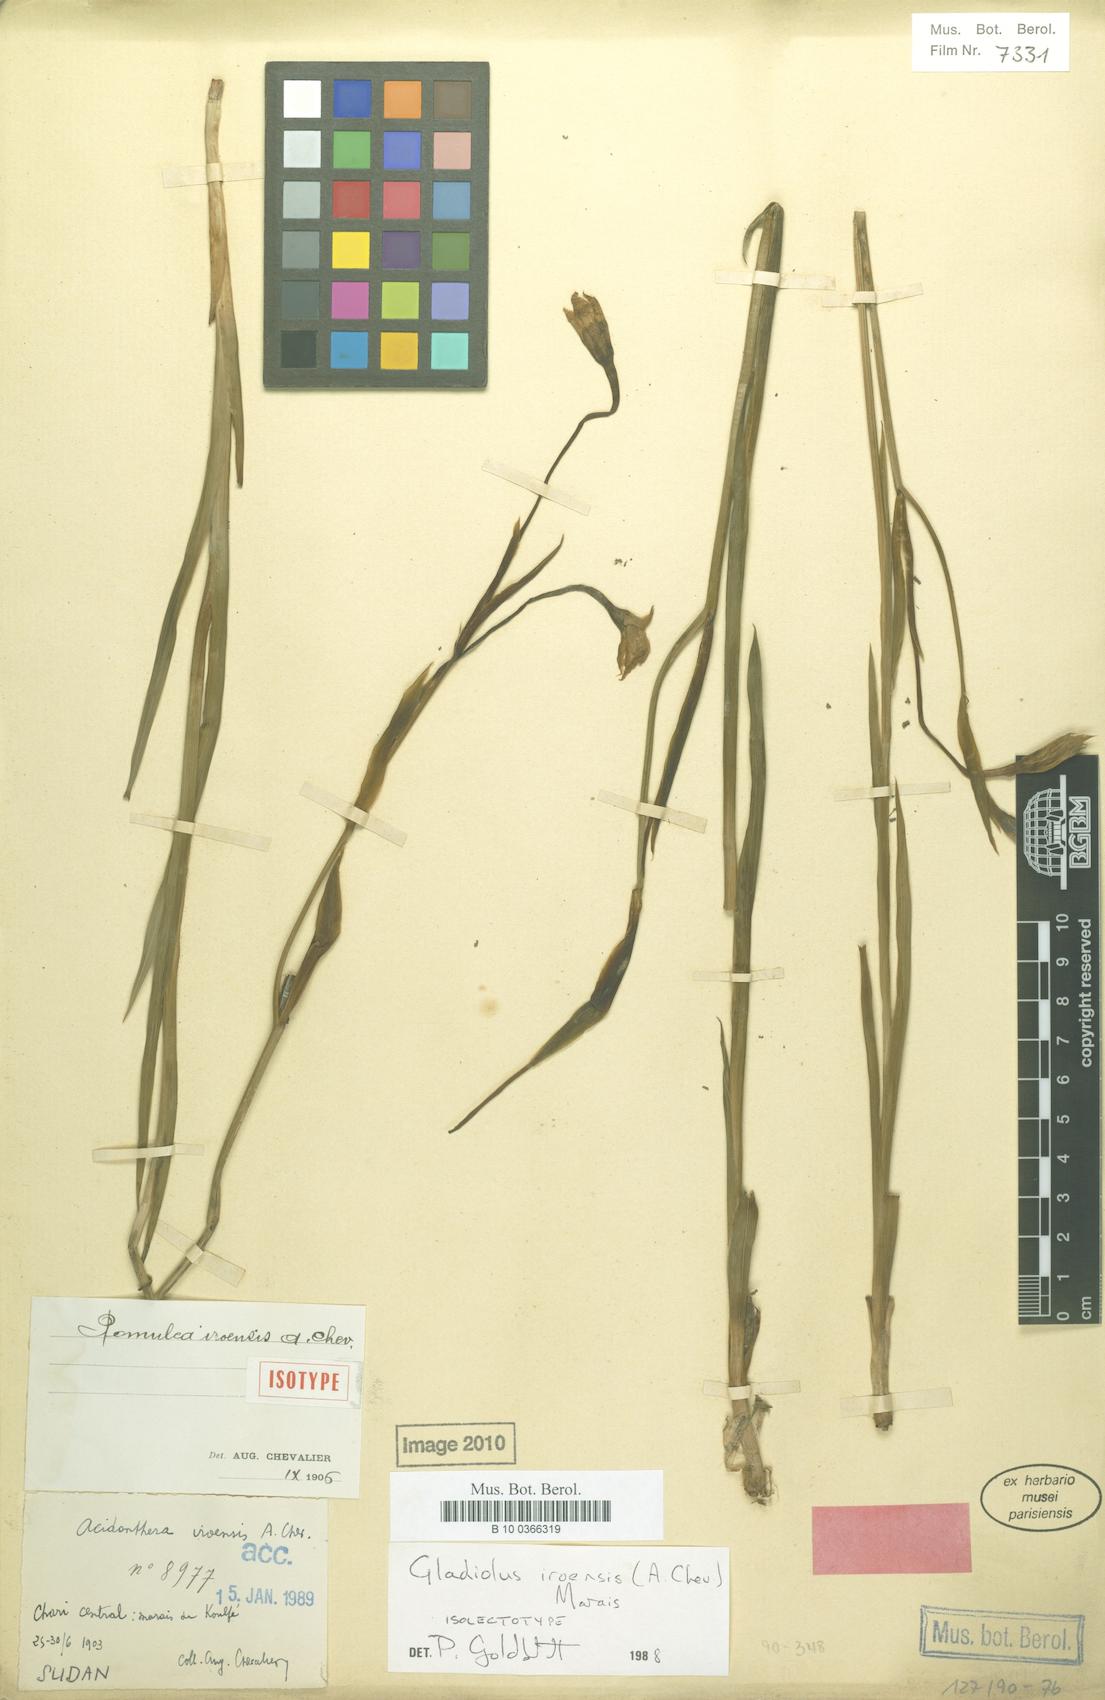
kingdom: Plantae
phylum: Tracheophyta
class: Liliopsida
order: Asparagales
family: Iridaceae
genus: Gladiolus
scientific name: Gladiolus iroensis
